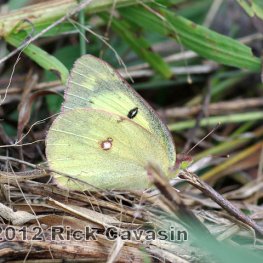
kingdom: Animalia
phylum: Arthropoda
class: Insecta
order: Lepidoptera
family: Pieridae
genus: Colias
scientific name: Colias philodice
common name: Clouded Sulphur
